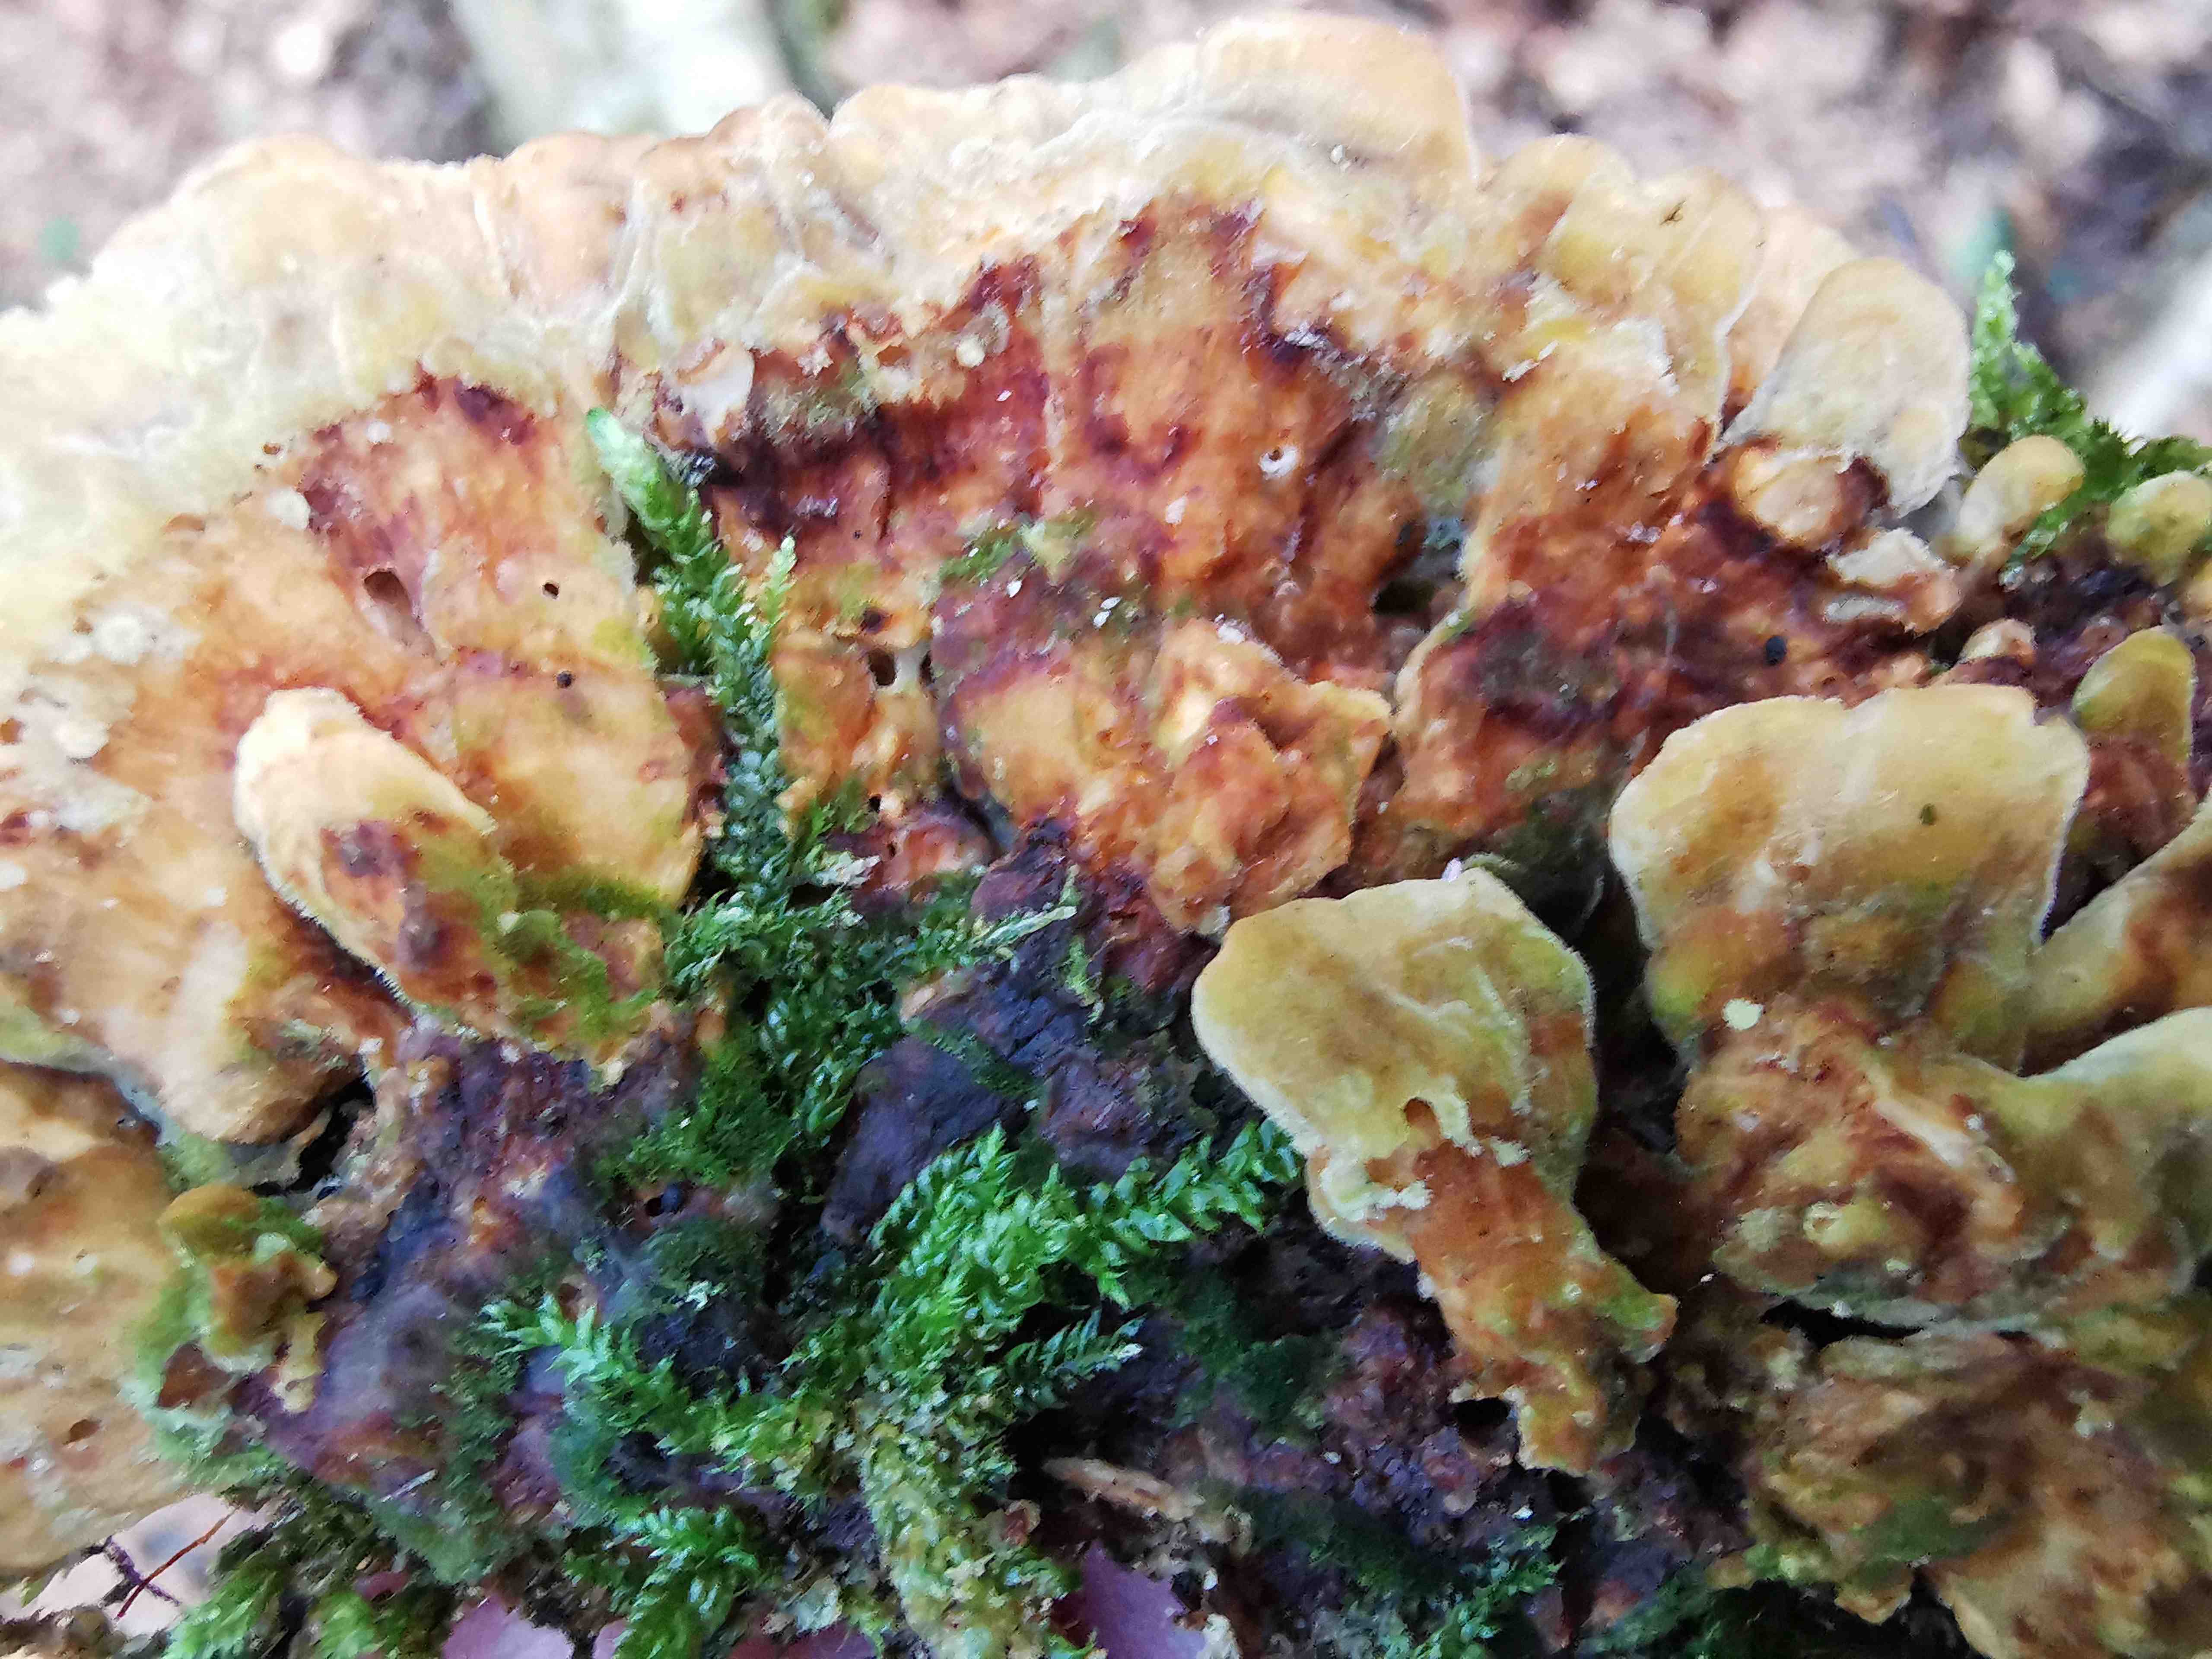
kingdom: Fungi
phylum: Basidiomycota
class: Agaricomycetes
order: Russulales
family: Stereaceae
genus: Stereum
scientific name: Stereum hirsutum
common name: håret lædersvamp
